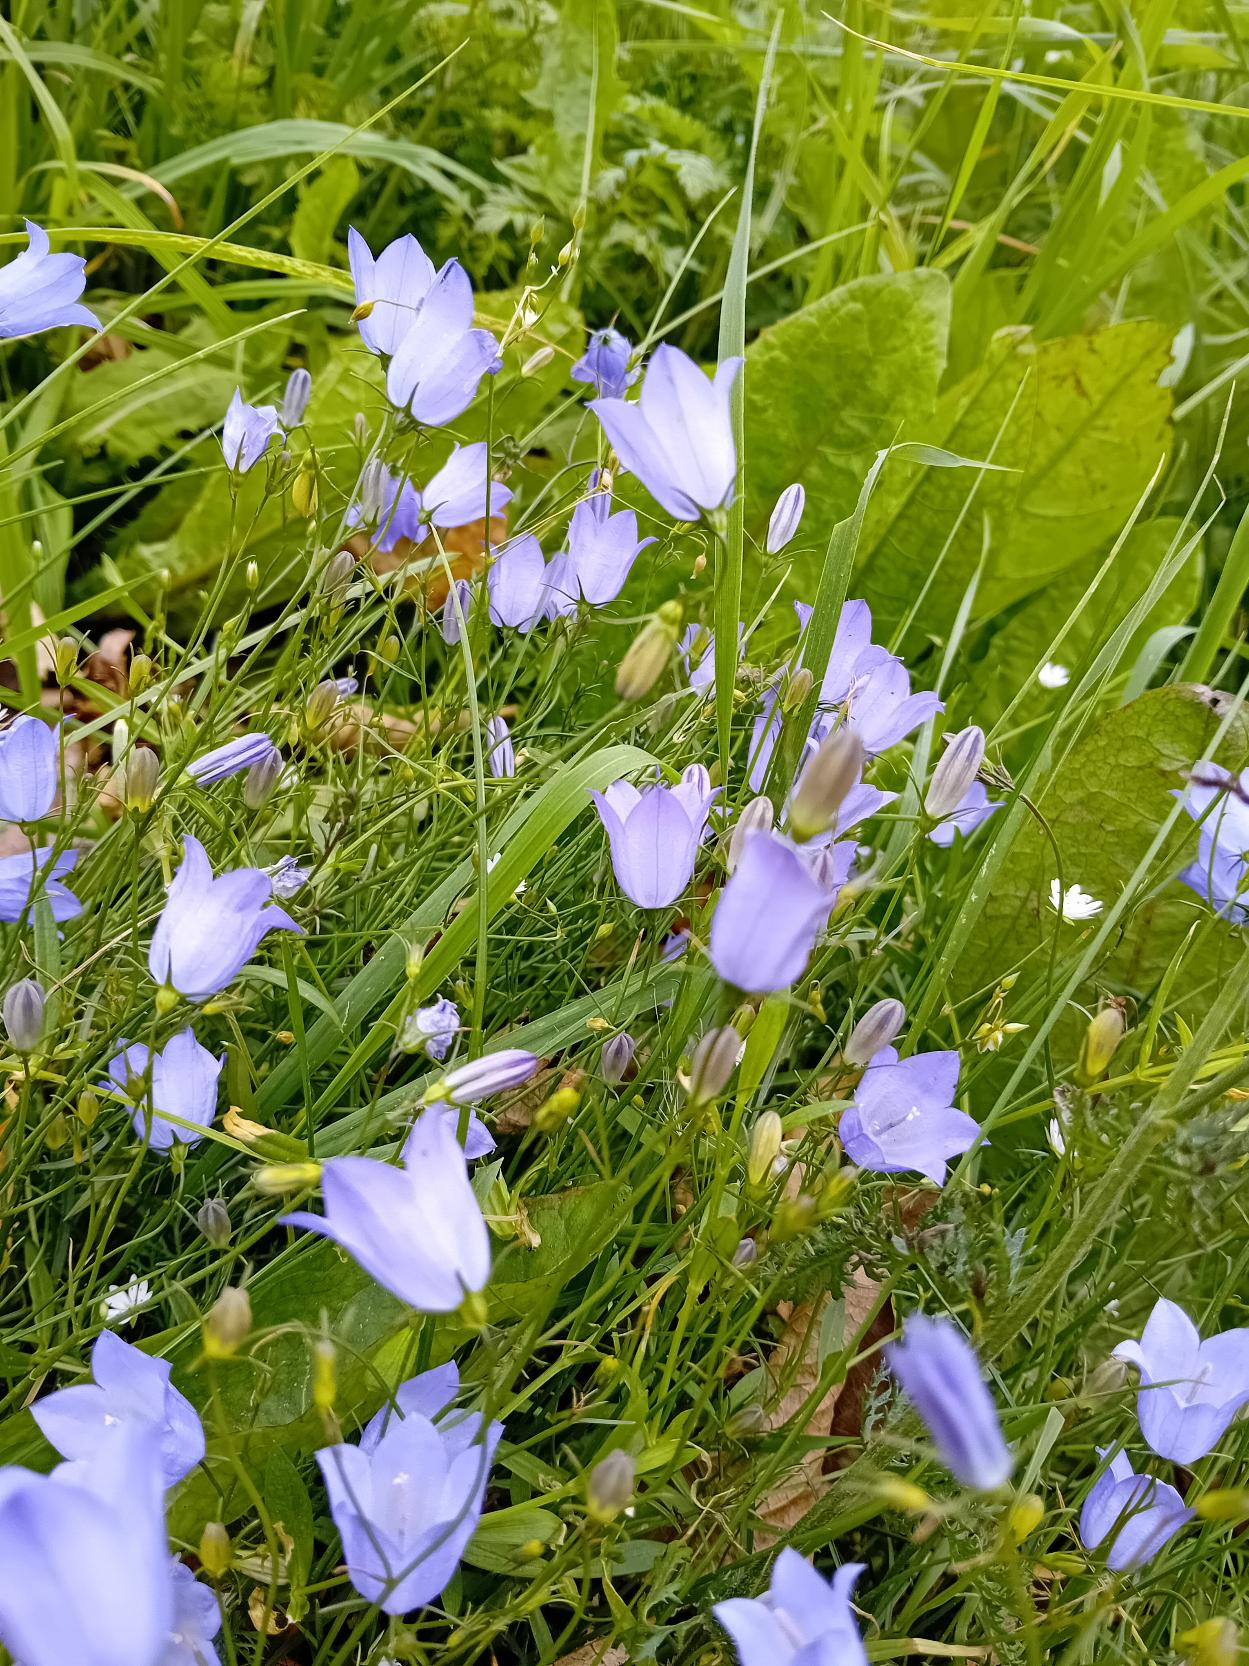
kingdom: Plantae
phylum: Tracheophyta
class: Magnoliopsida
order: Asterales
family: Campanulaceae
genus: Campanula
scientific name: Campanula rotundifolia
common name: Liden klokke
